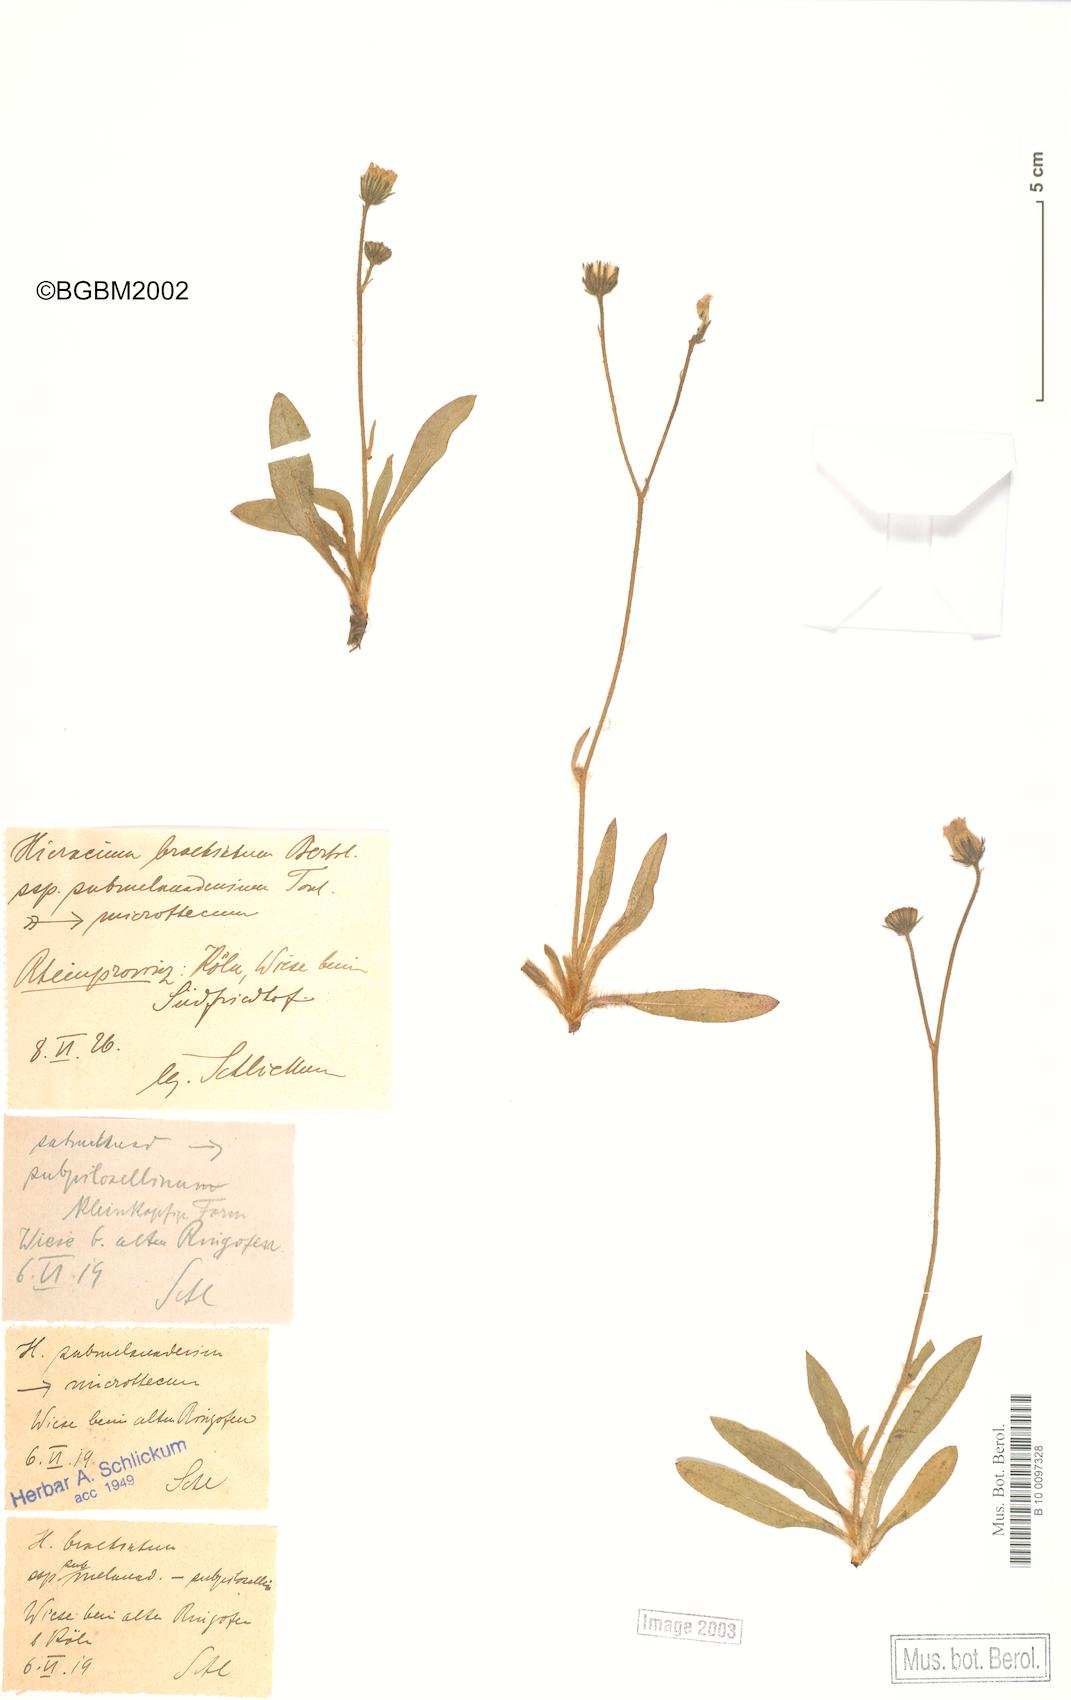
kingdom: Plantae
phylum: Tracheophyta
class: Magnoliopsida
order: Asterales
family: Asteraceae
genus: Pilosella
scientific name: Pilosella acutifolia
